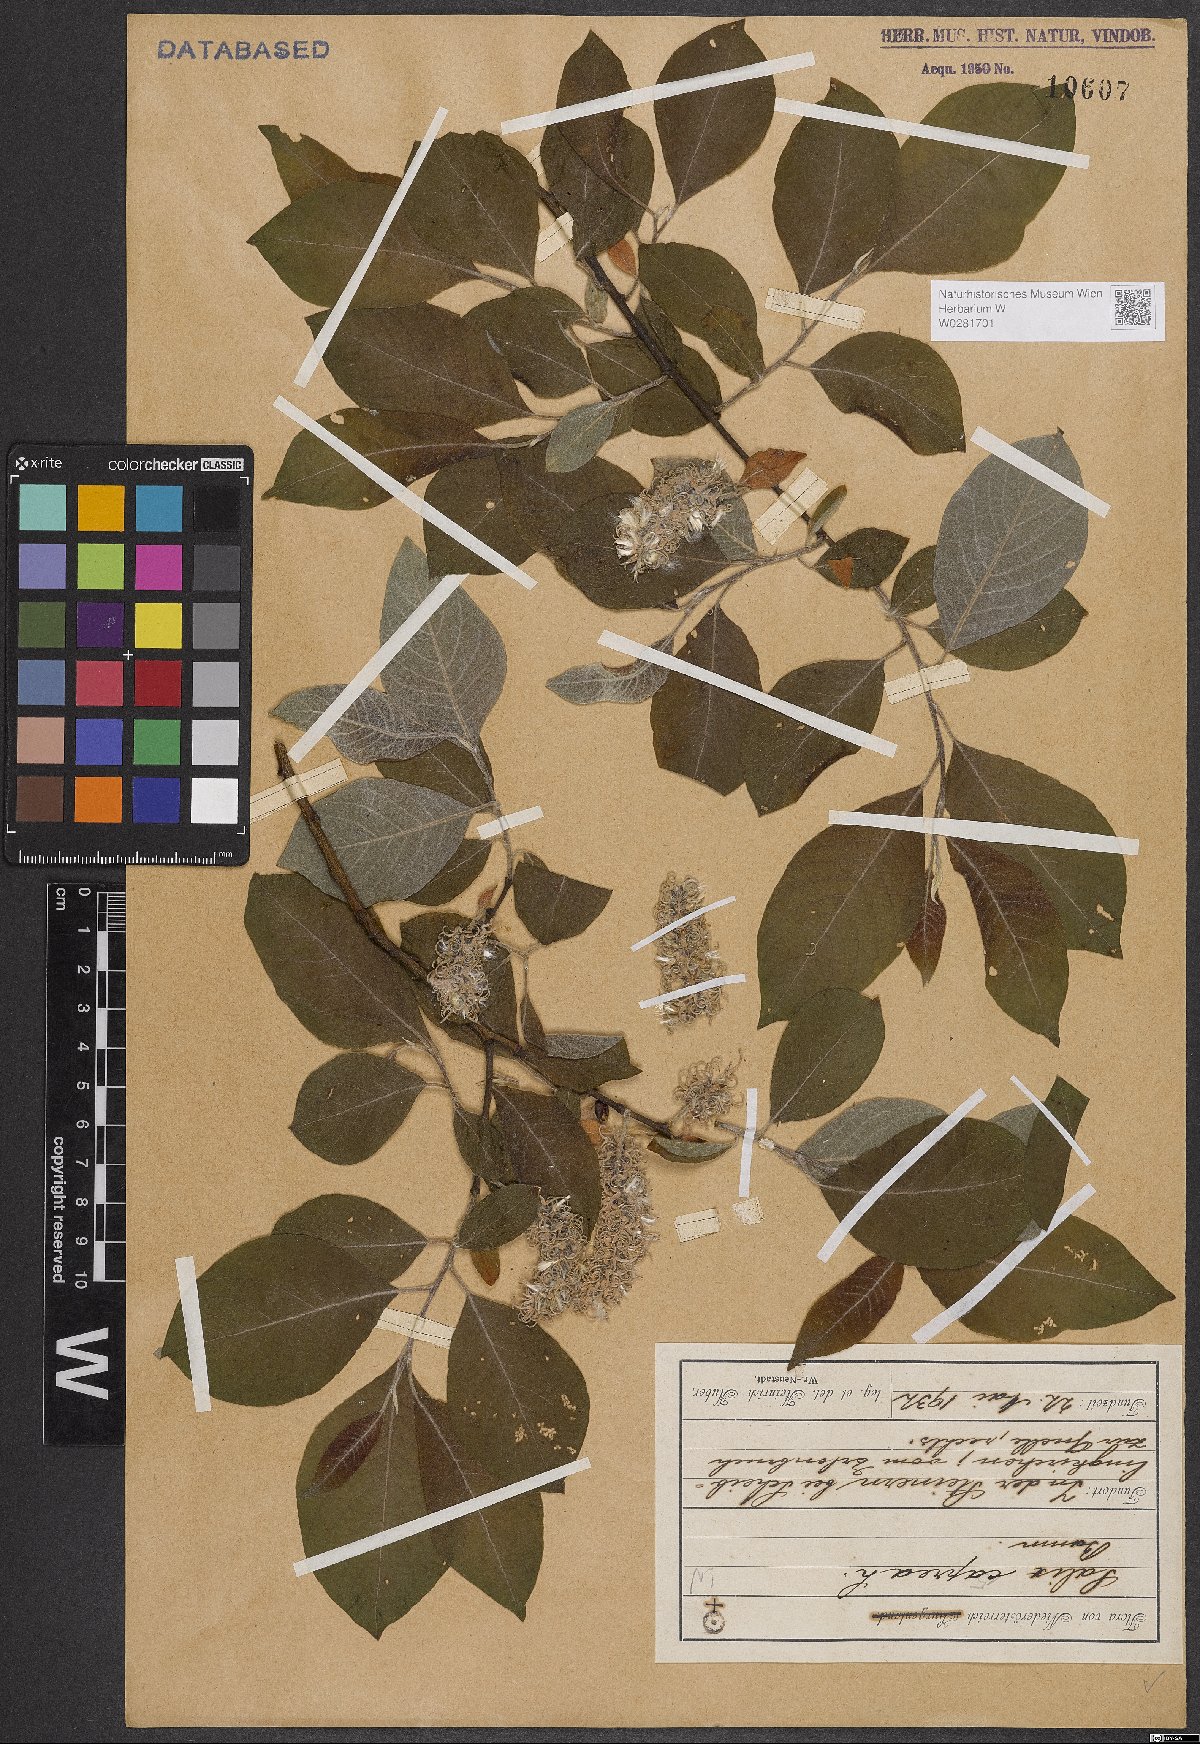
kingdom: Plantae
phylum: Tracheophyta
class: Magnoliopsida
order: Malpighiales
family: Salicaceae
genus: Salix
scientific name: Salix caprea
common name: Goat willow
